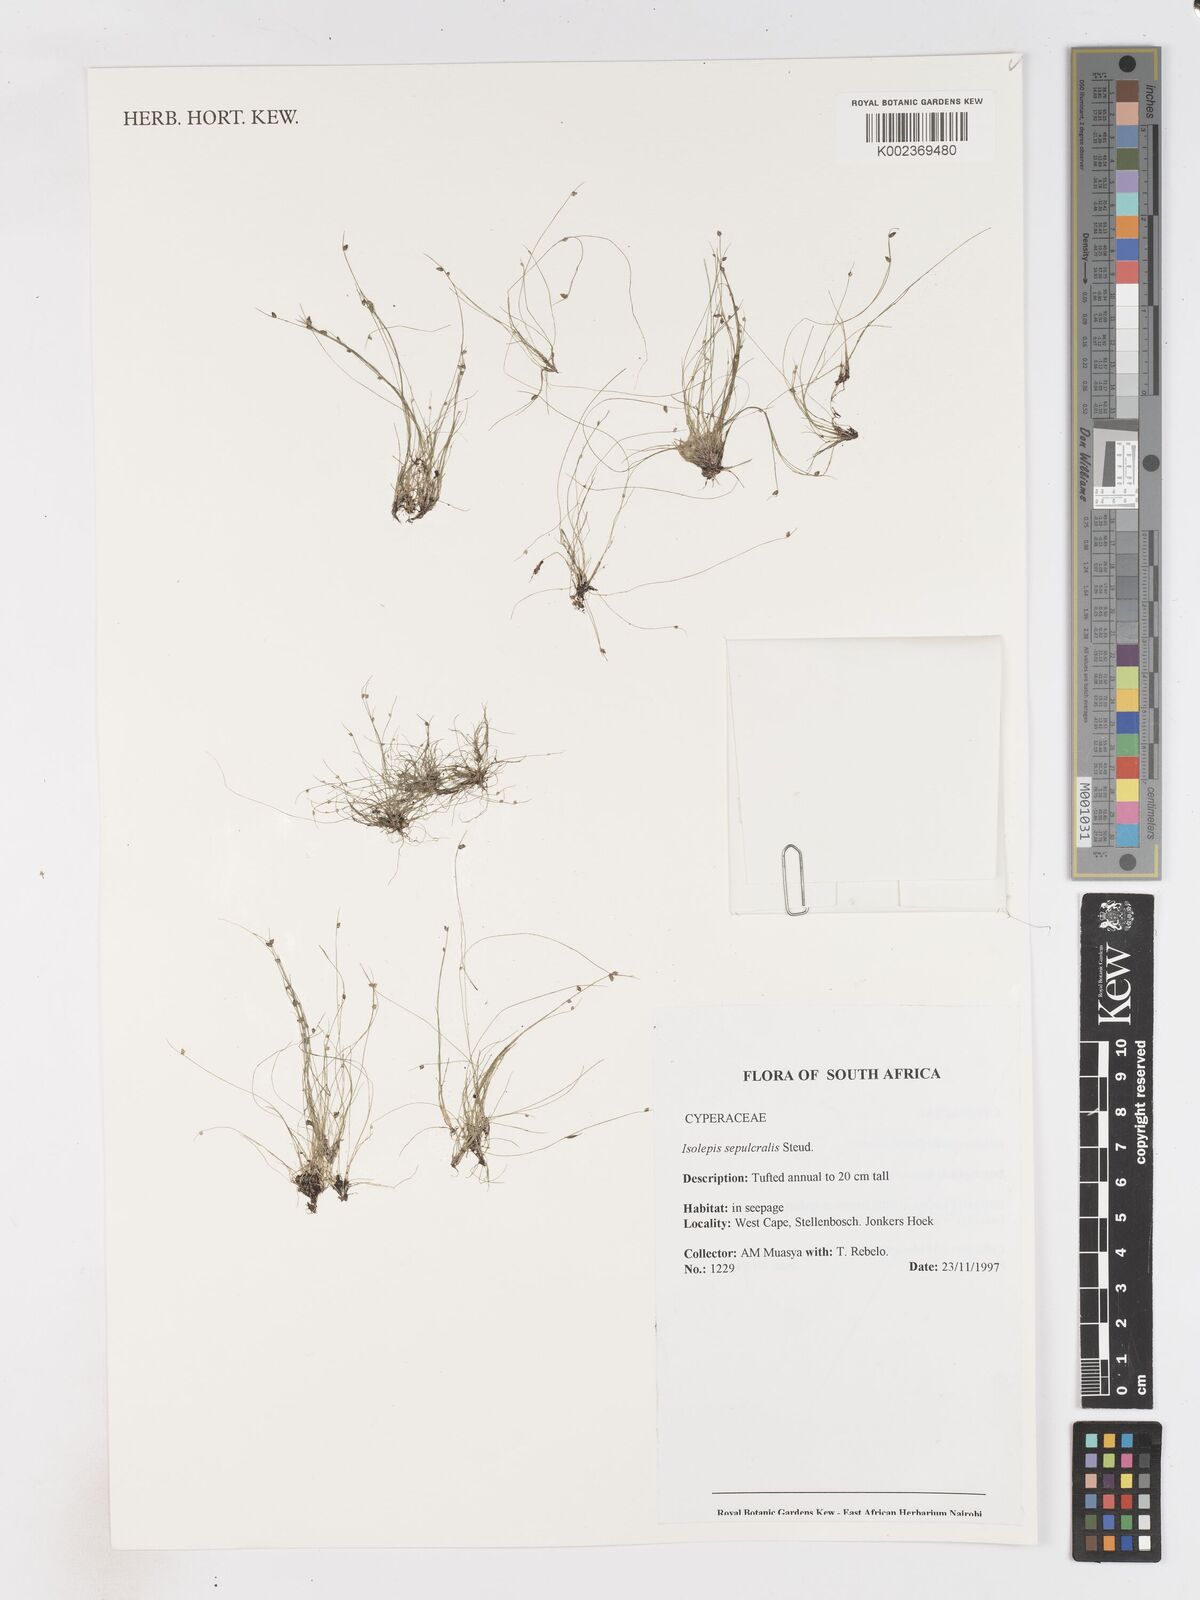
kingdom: Plantae
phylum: Tracheophyta
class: Liliopsida
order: Poales
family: Cyperaceae
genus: Isolepis
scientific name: Isolepis sepulcralis
